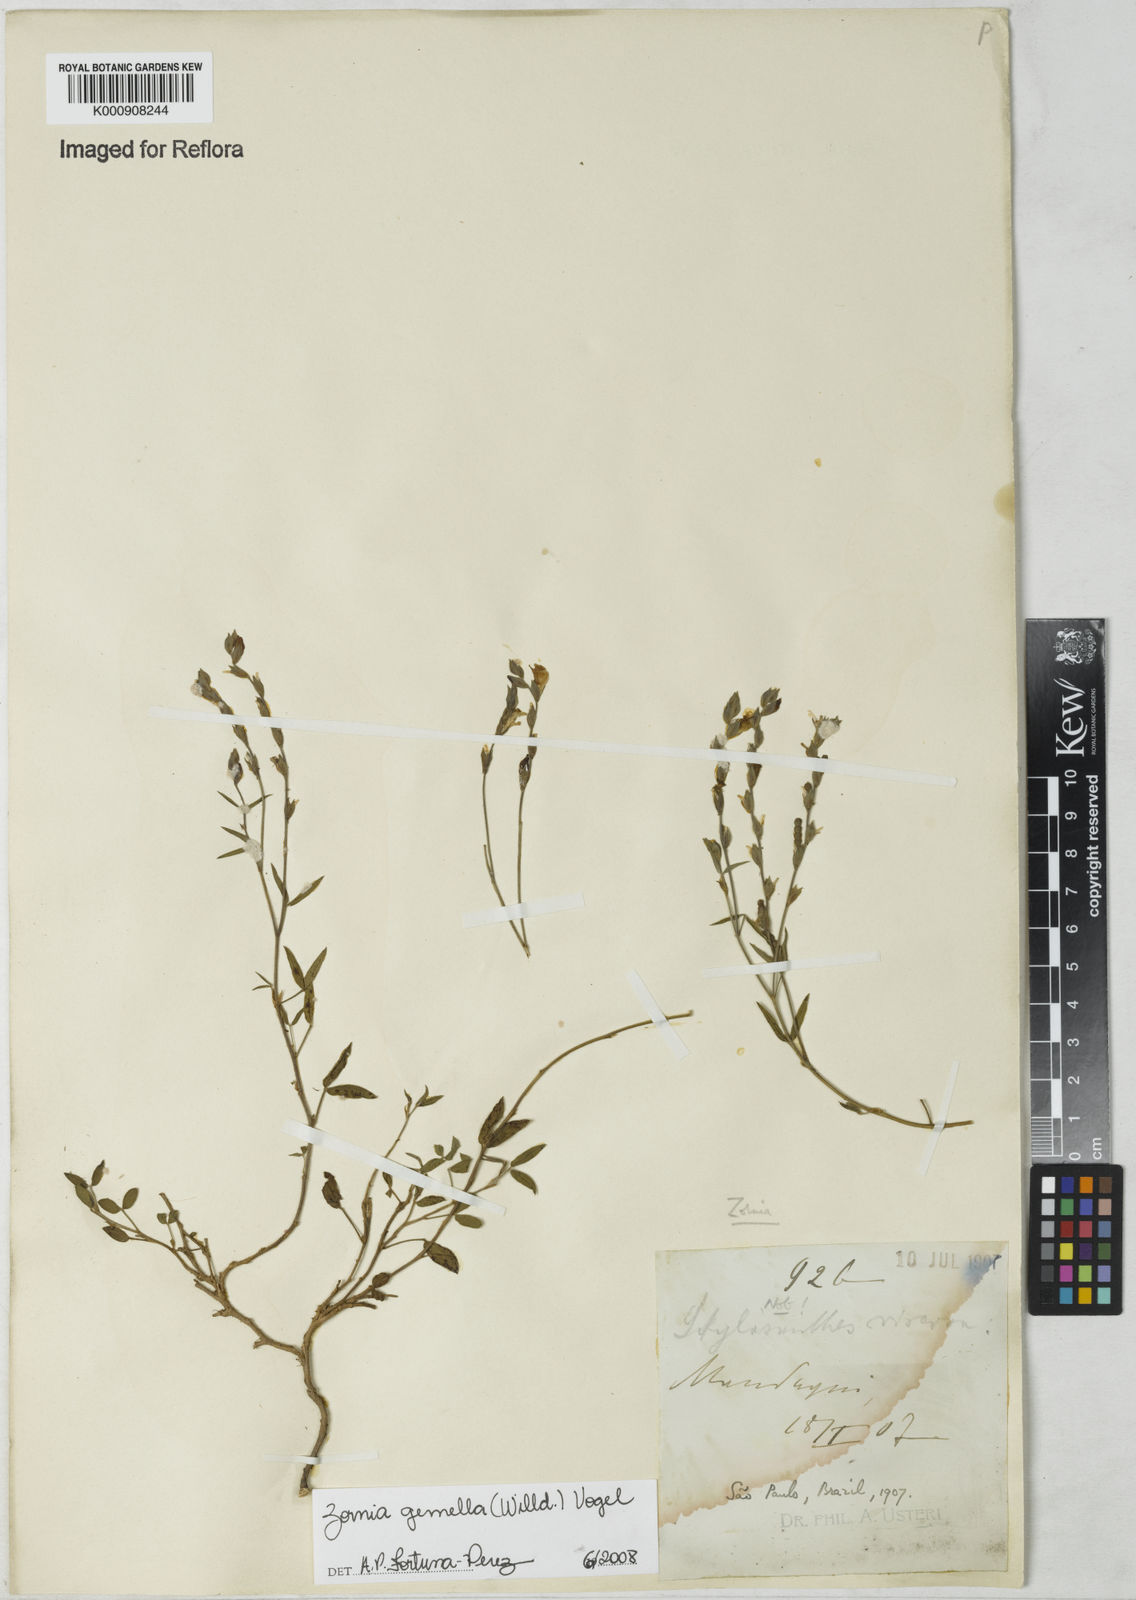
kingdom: Plantae
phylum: Tracheophyta
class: Magnoliopsida
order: Fabales
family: Fabaceae
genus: Zornia
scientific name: Zornia latifolia
